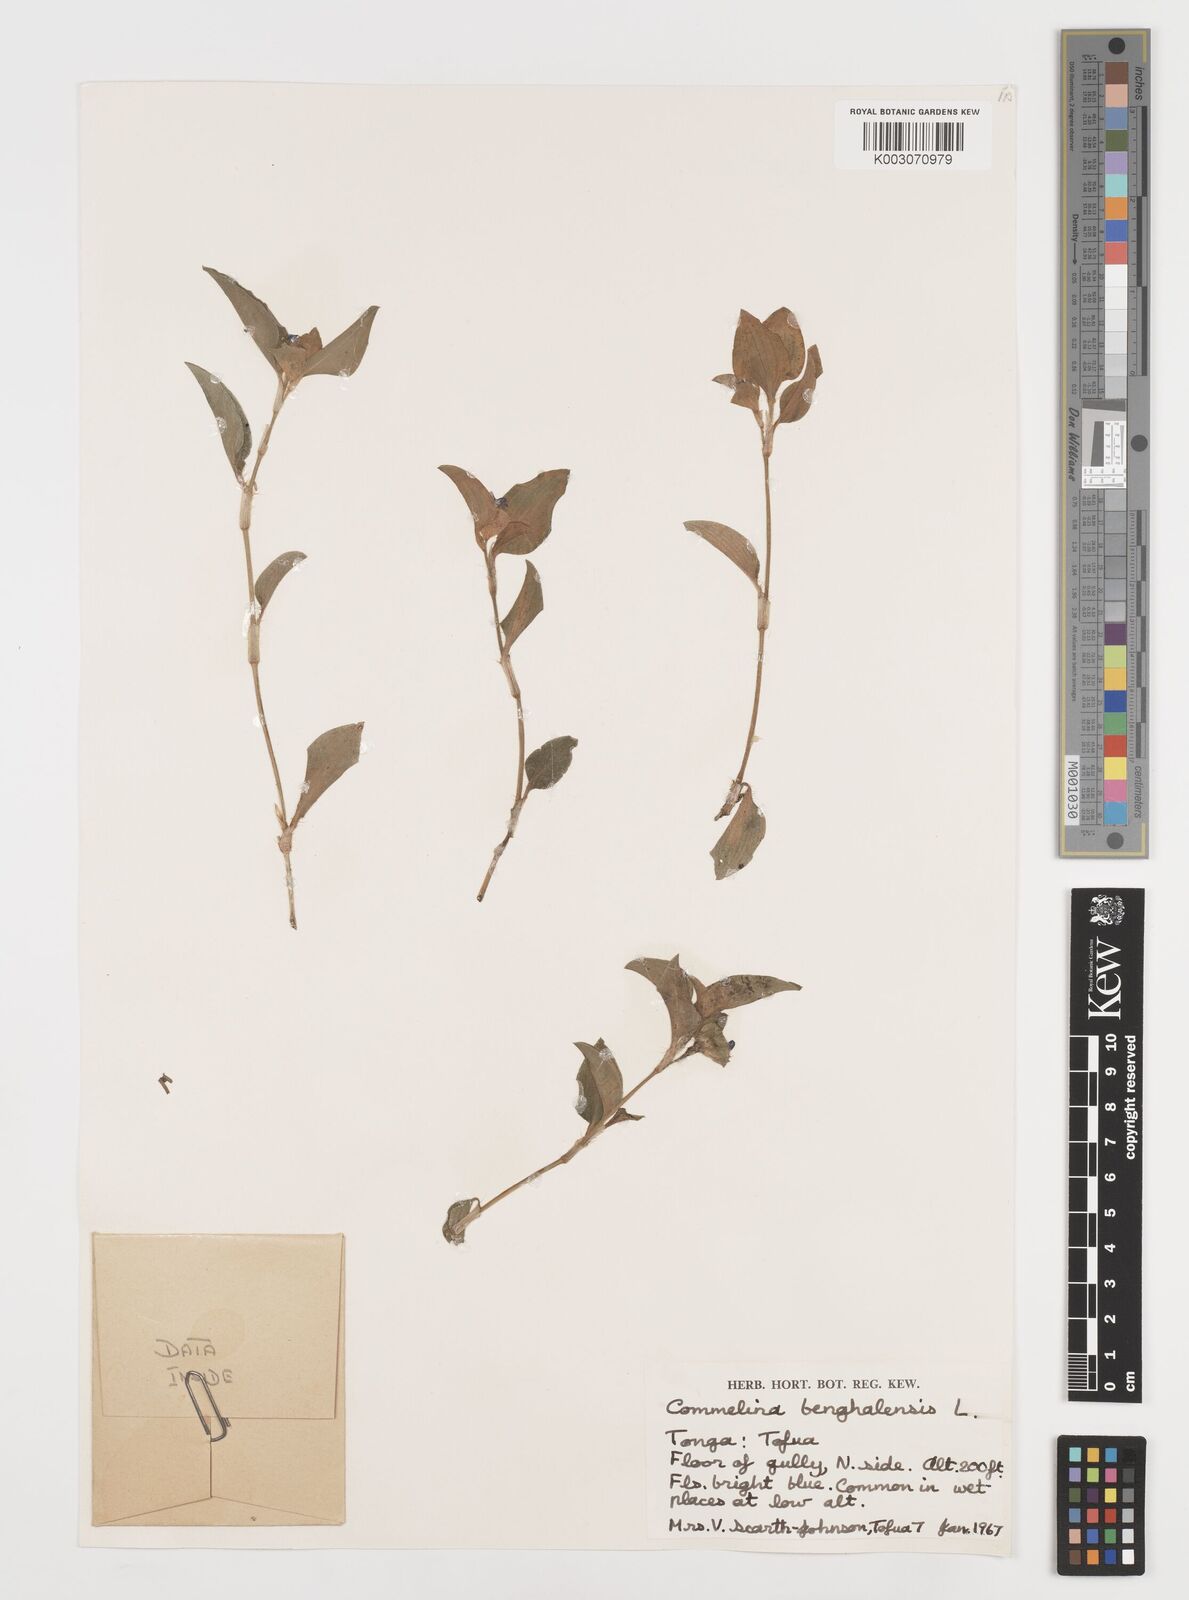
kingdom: Plantae
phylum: Tracheophyta
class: Liliopsida
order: Commelinales
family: Commelinaceae
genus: Commelina
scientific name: Commelina benghalensis
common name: Jio
